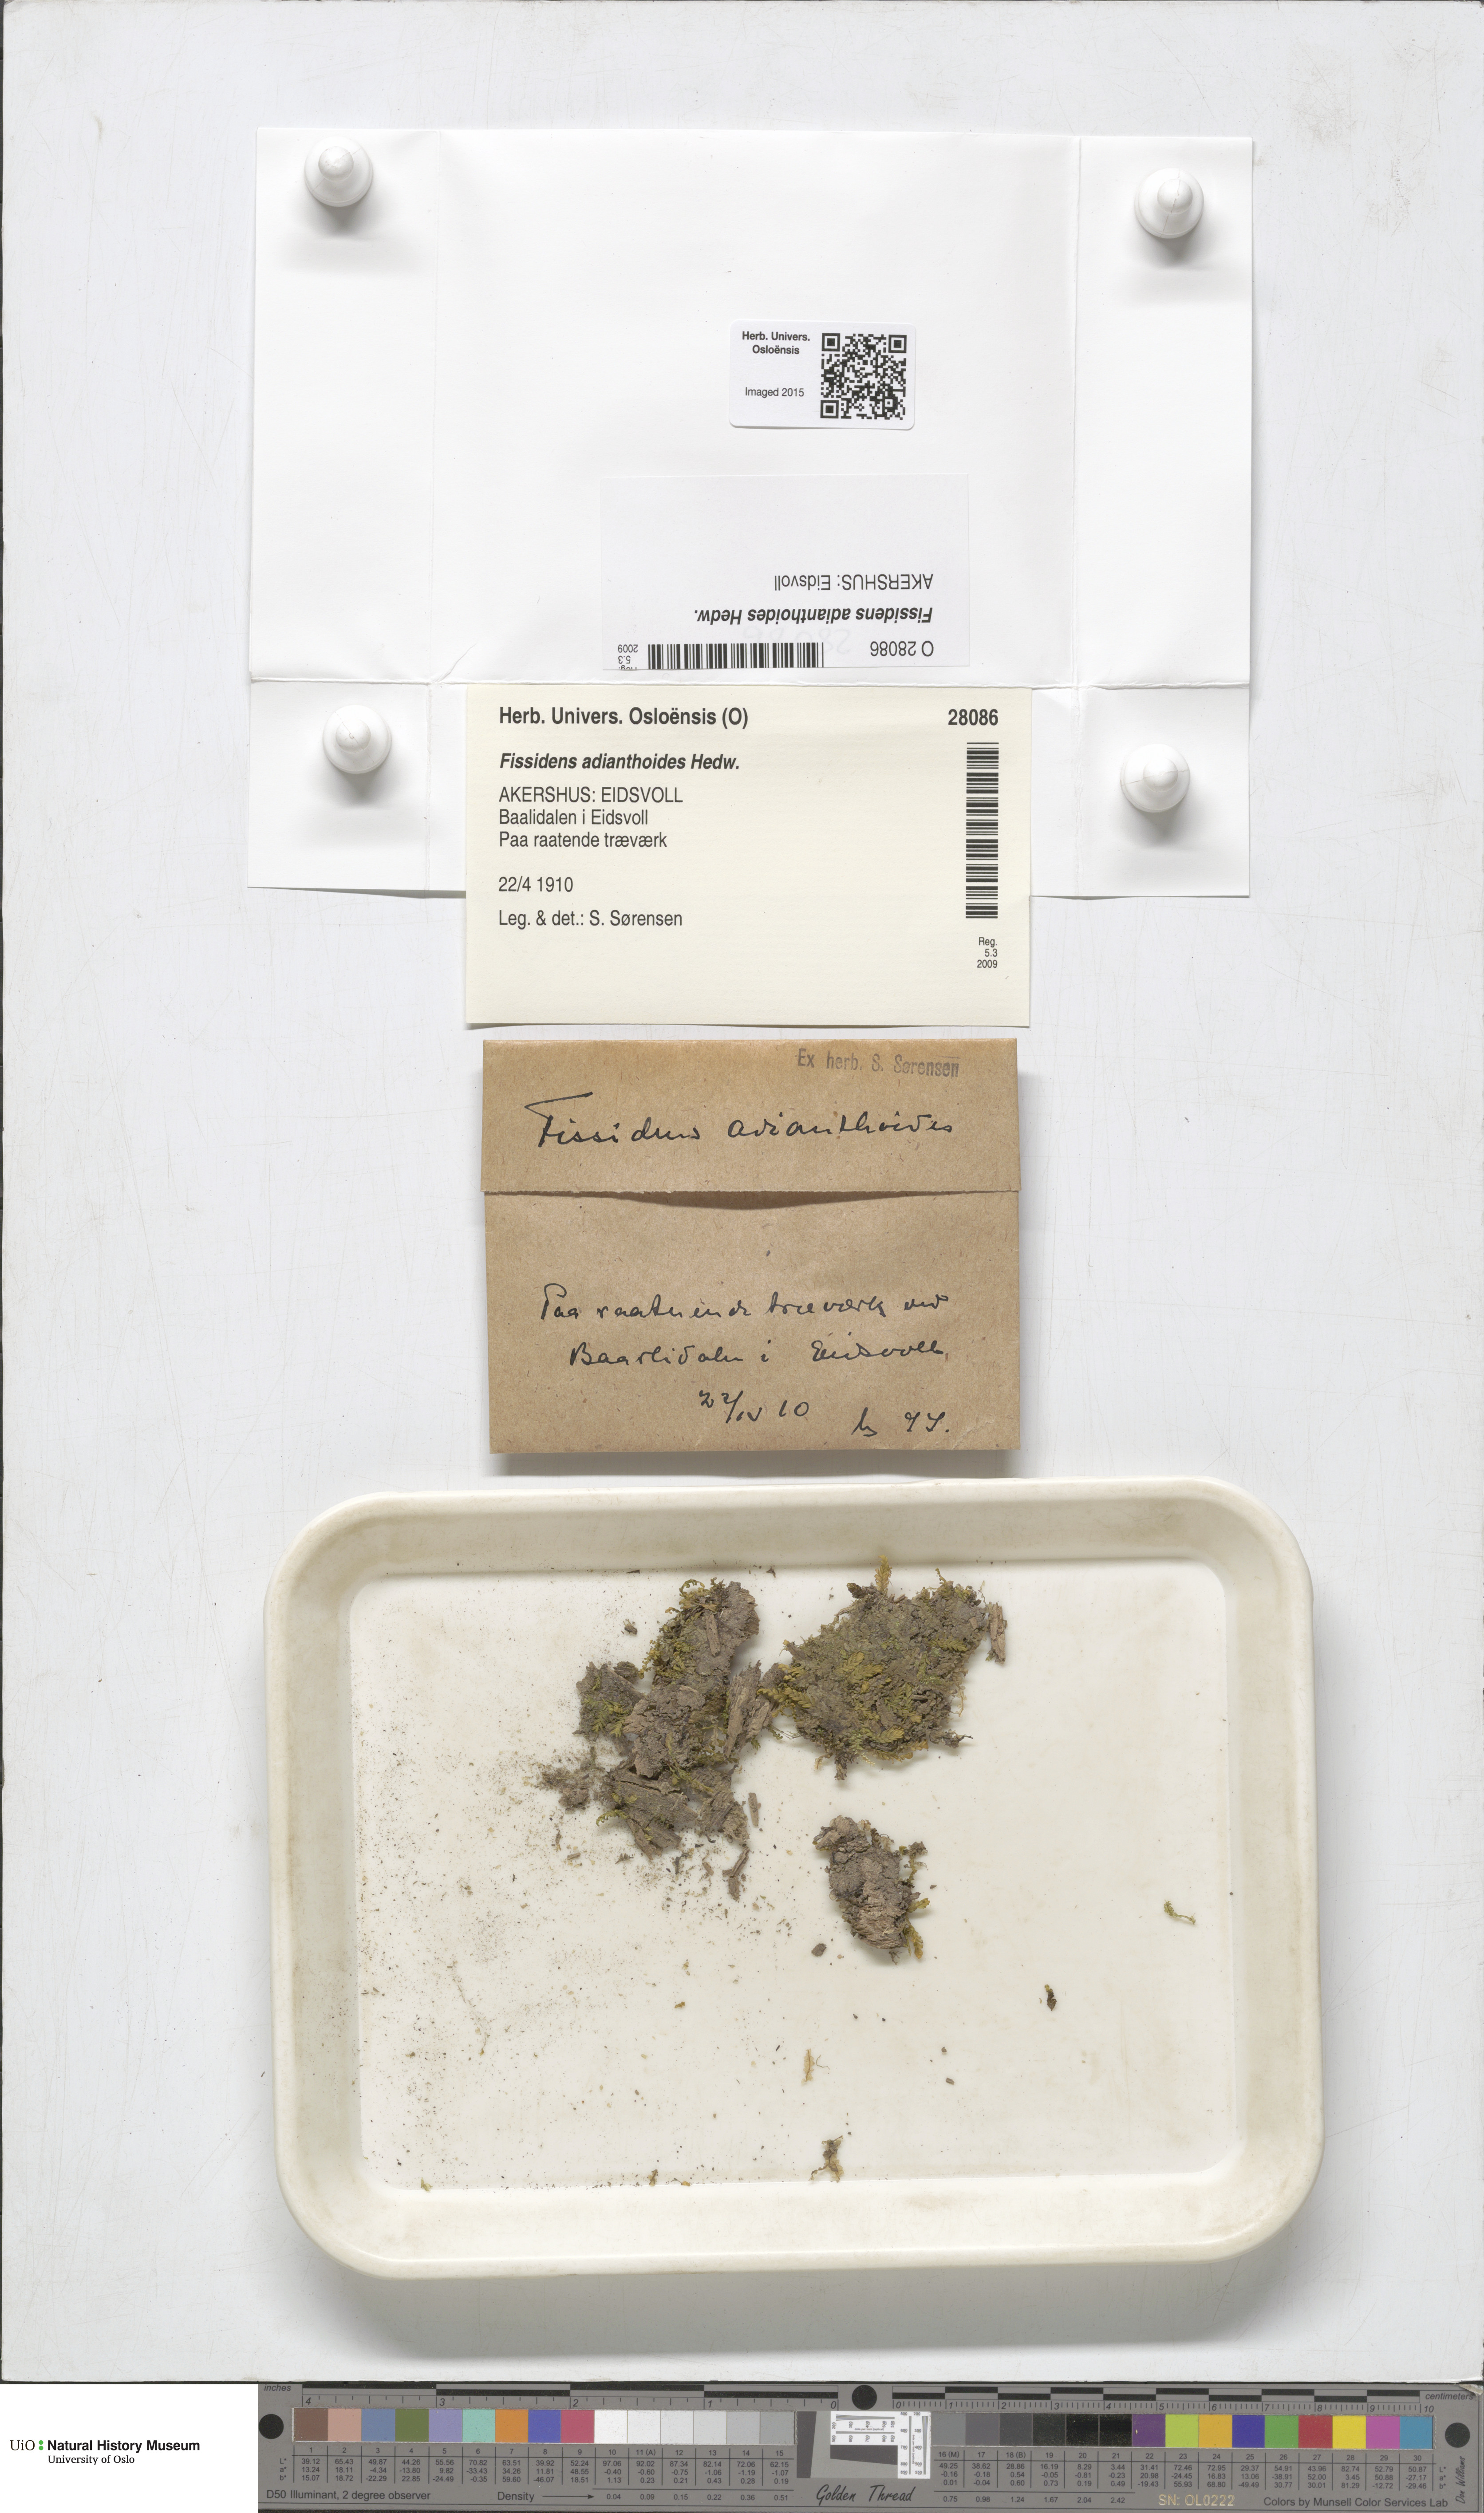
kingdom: Plantae
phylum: Bryophyta
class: Bryopsida
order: Dicranales
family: Fissidentaceae
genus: Fissidens
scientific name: Fissidens adianthoides
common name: Maidenhair pocket moss
